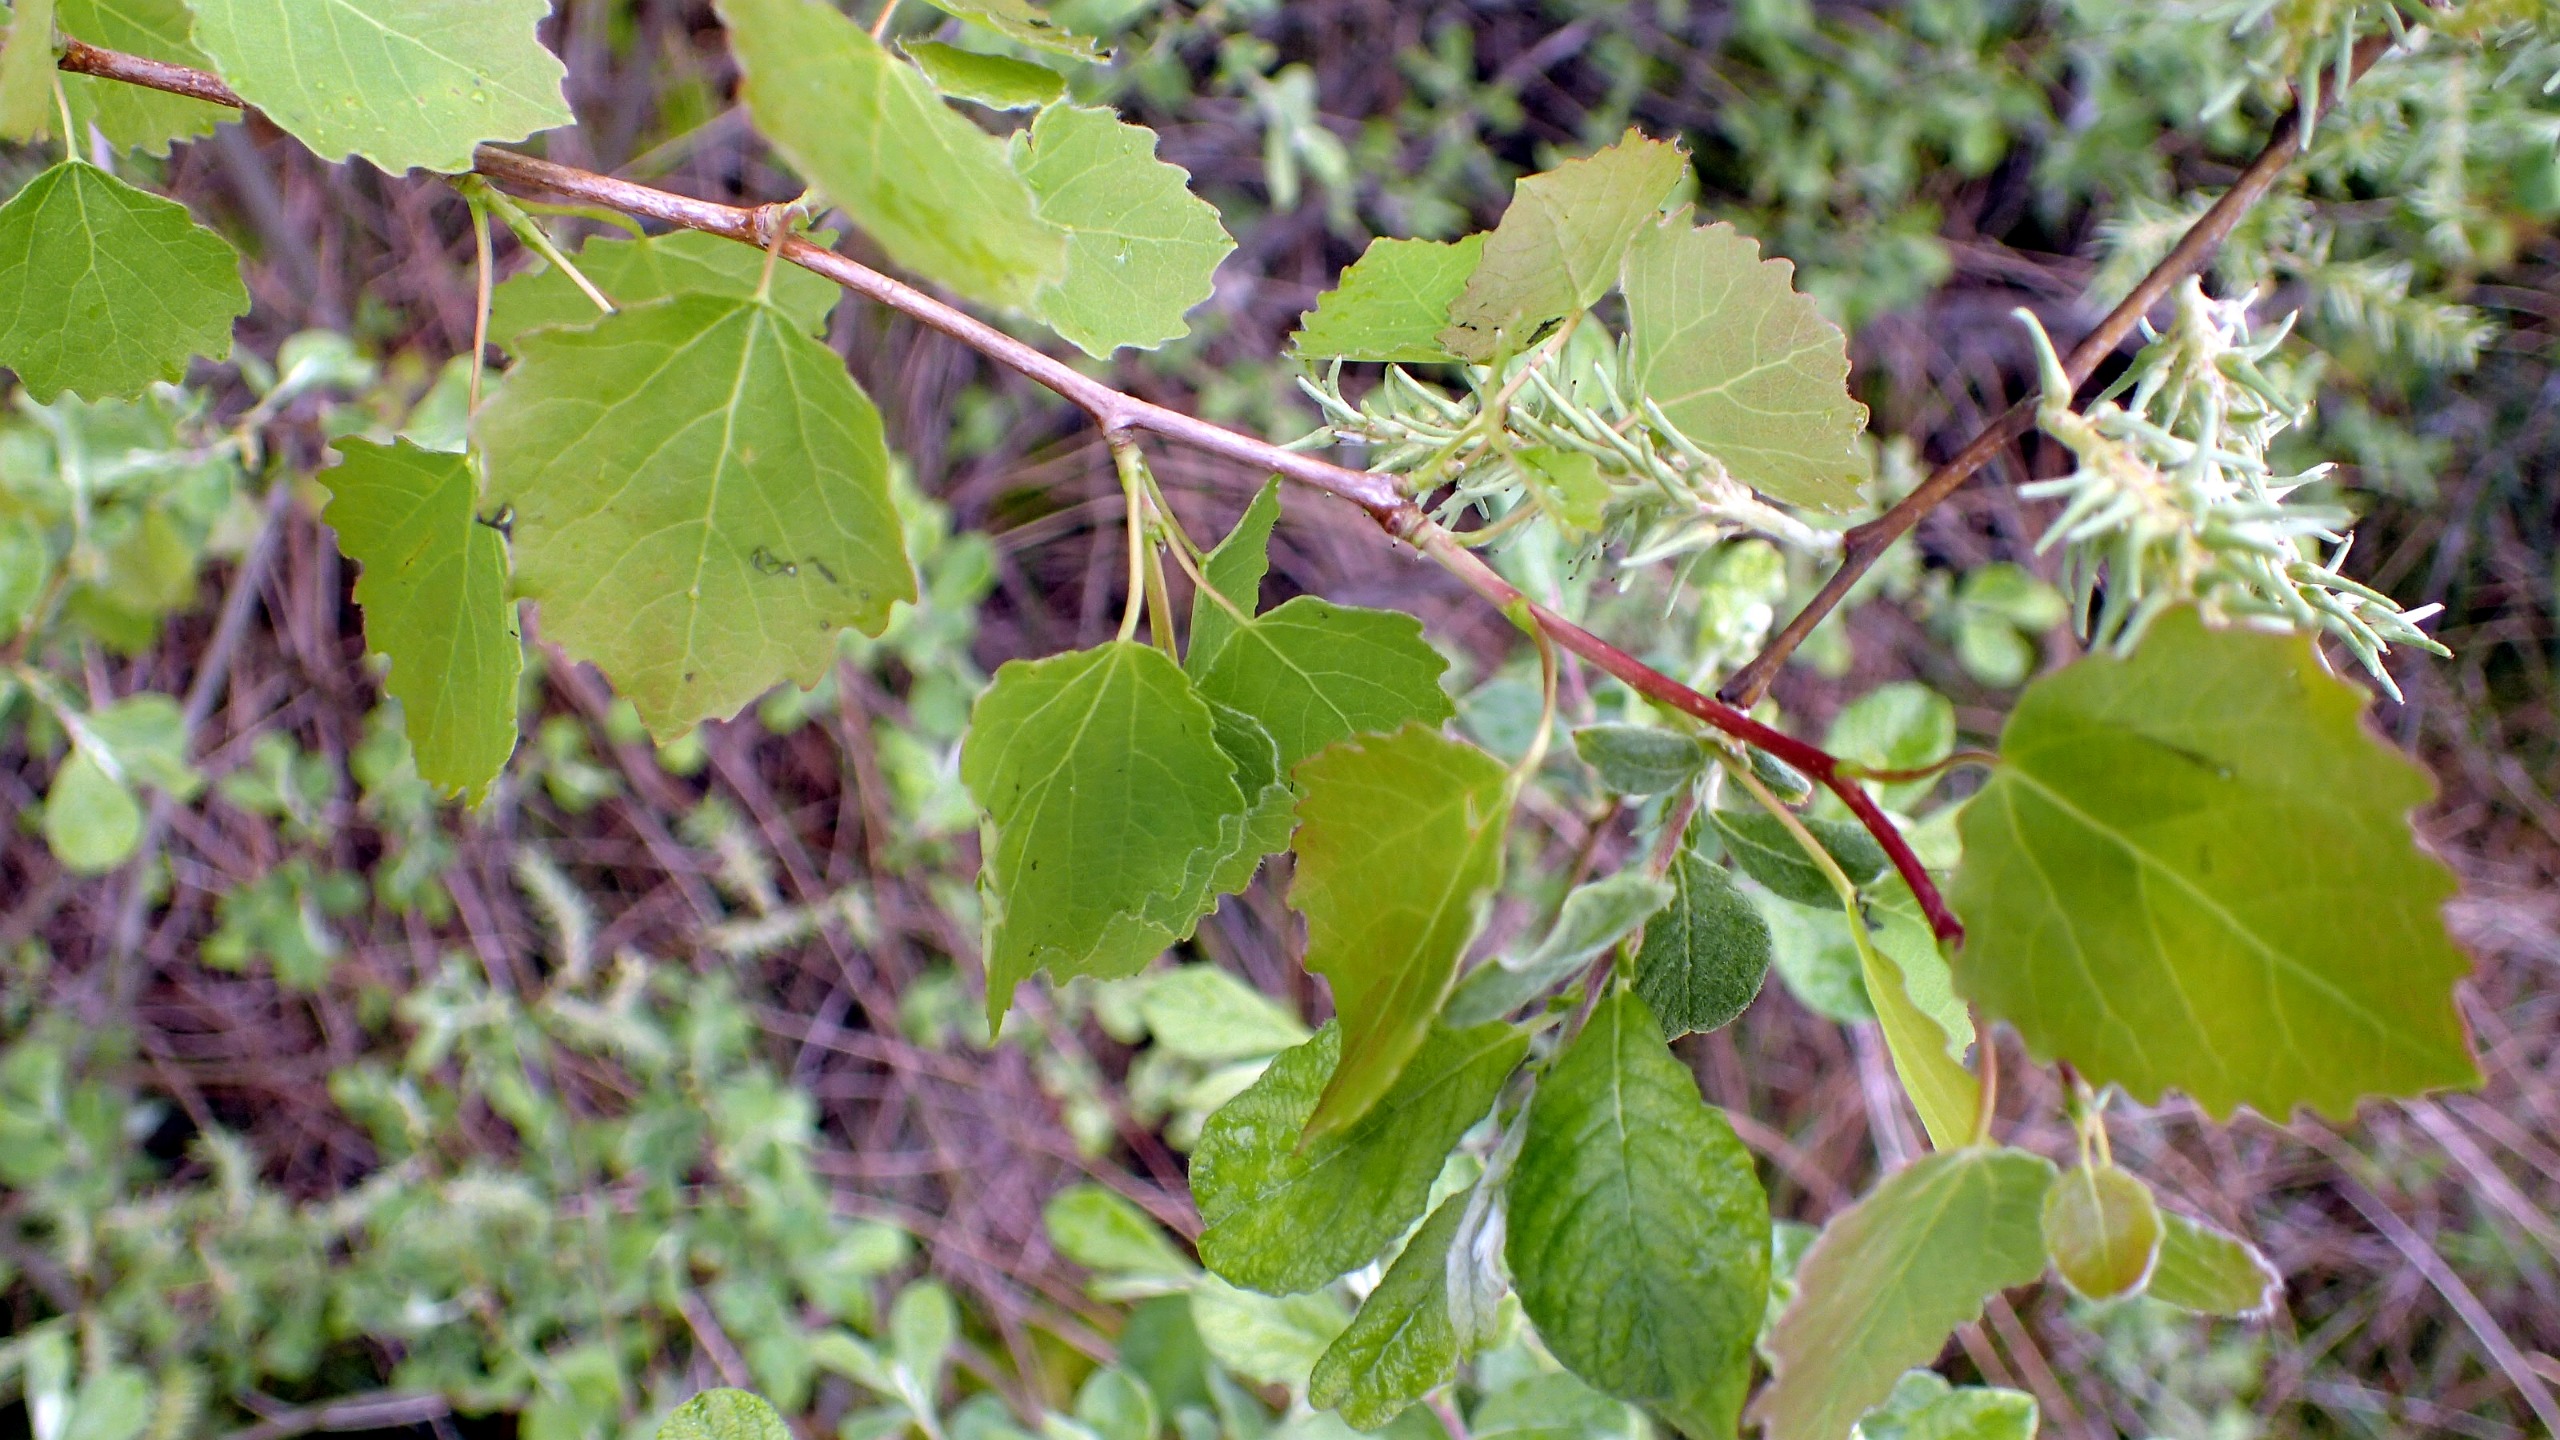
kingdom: Plantae
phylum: Tracheophyta
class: Magnoliopsida
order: Malpighiales
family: Salicaceae
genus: Populus
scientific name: Populus tremula
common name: Bævreasp
